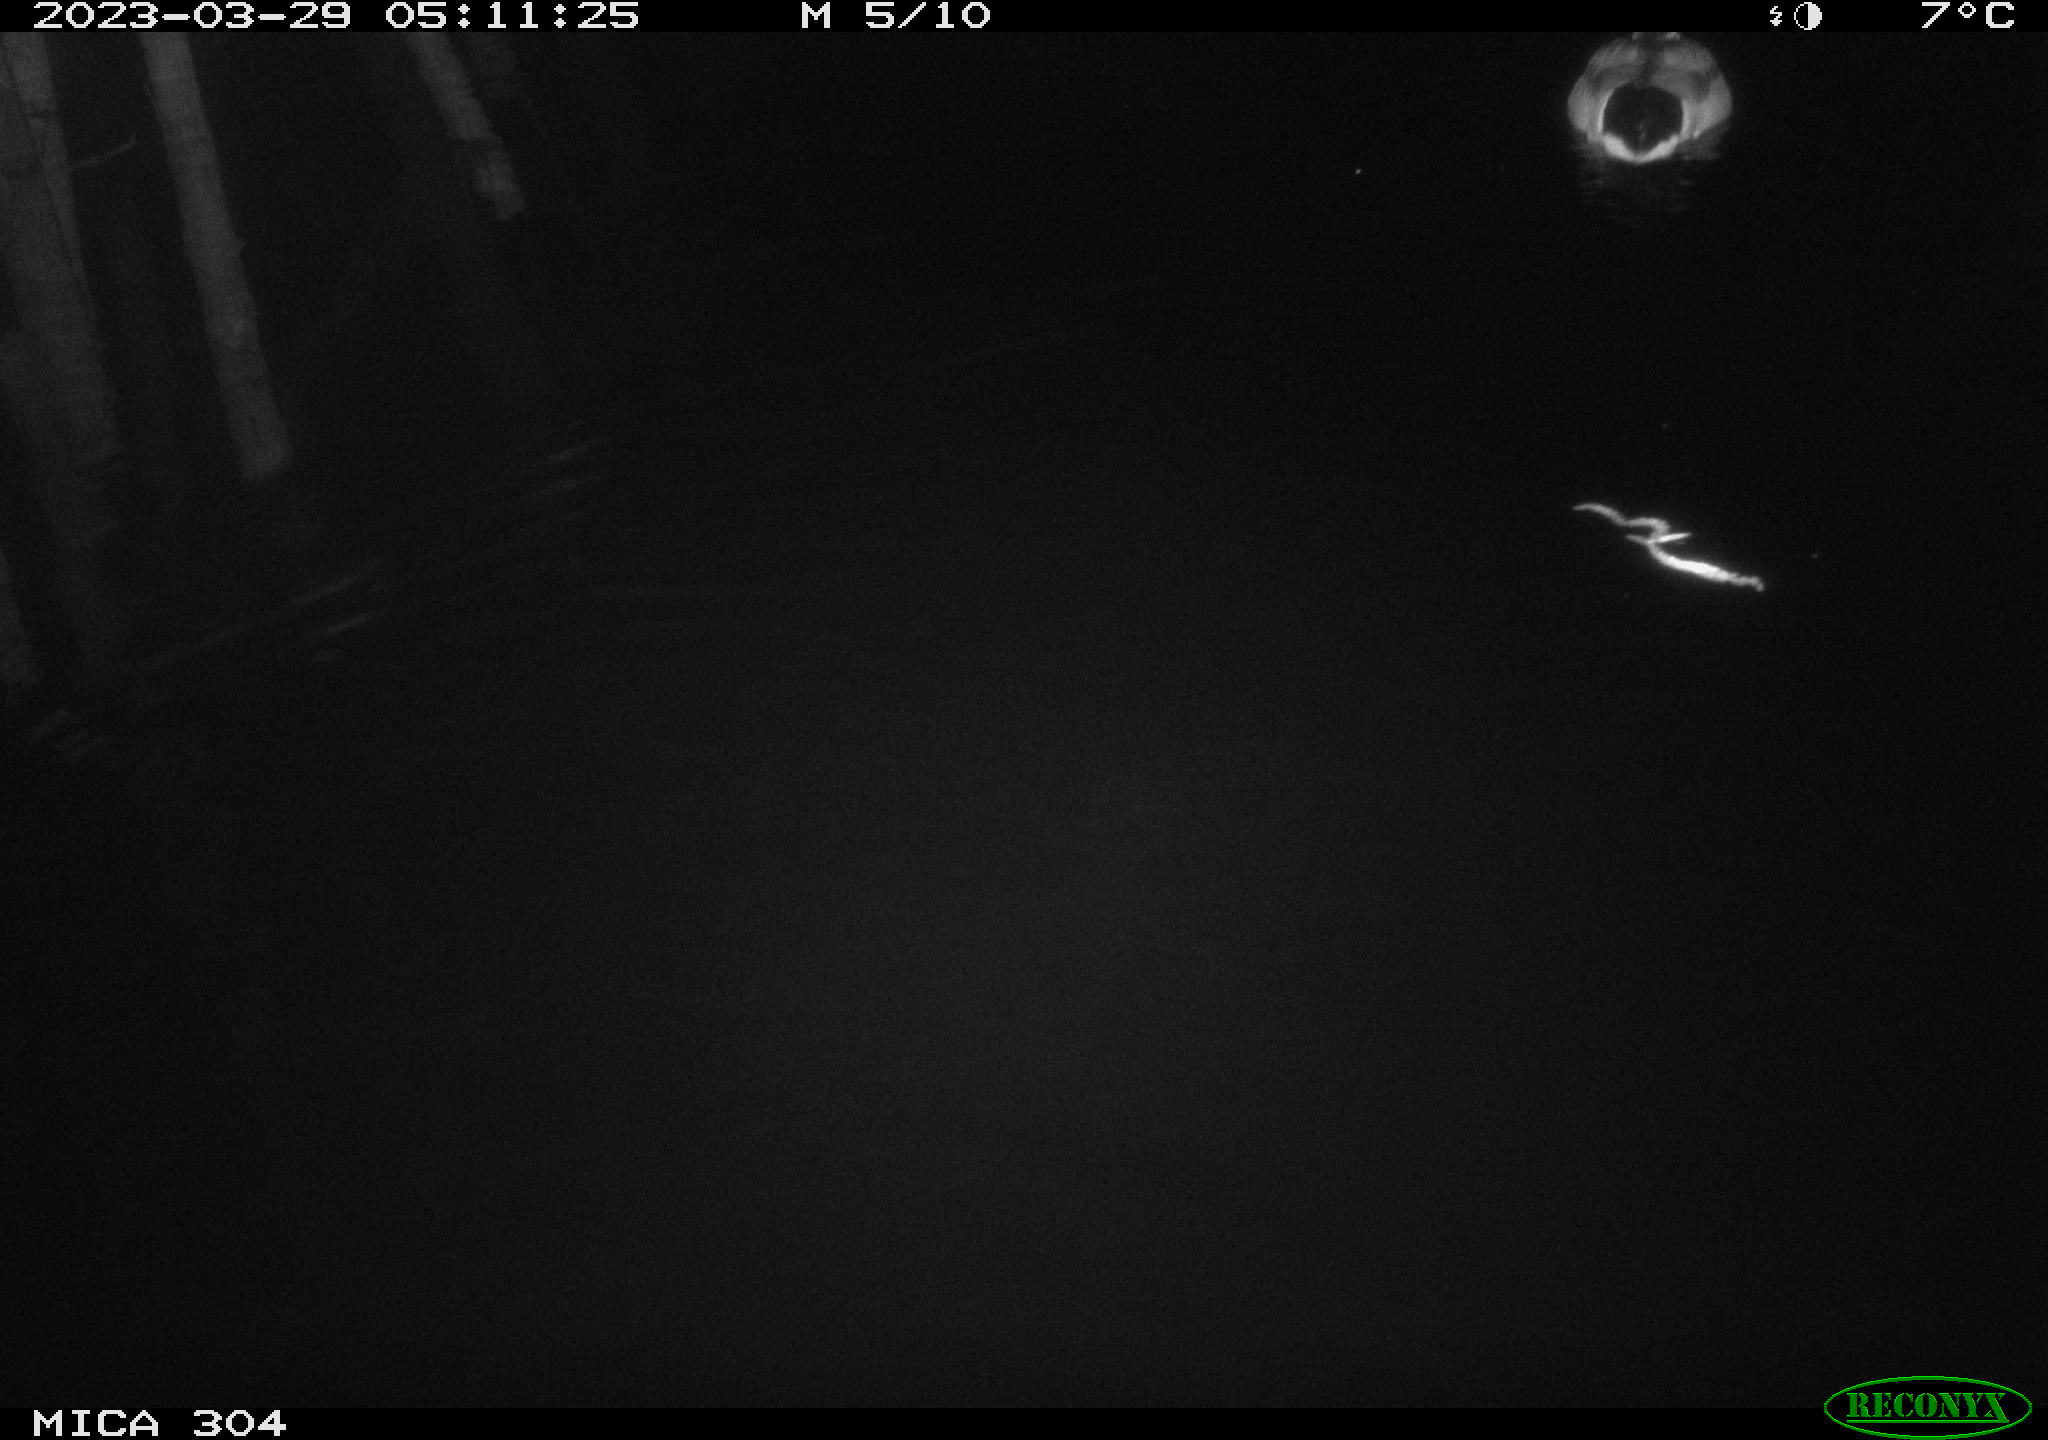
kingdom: Animalia
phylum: Chordata
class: Aves
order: Anseriformes
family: Anatidae
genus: Anas
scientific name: Anas
